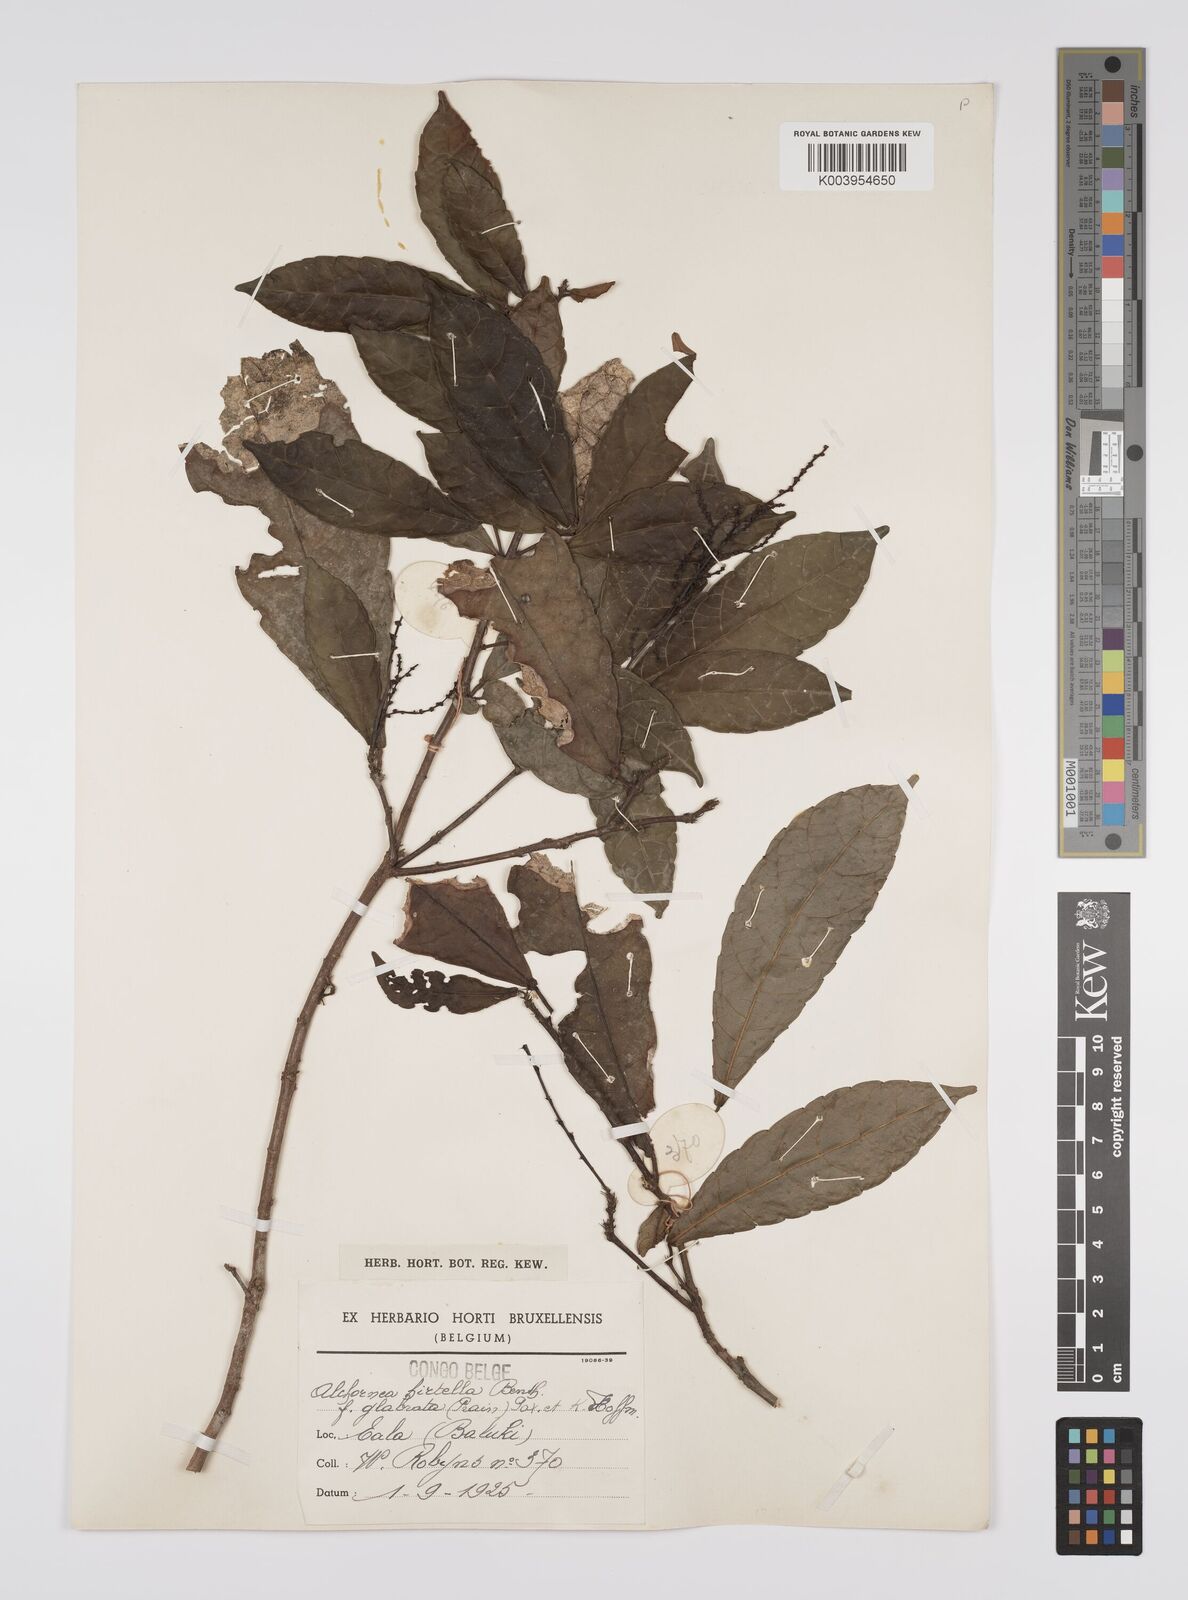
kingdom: Plantae
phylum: Tracheophyta
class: Magnoliopsida
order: Malpighiales
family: Euphorbiaceae
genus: Alchornea
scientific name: Alchornea hirtella
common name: Forest bead-string
